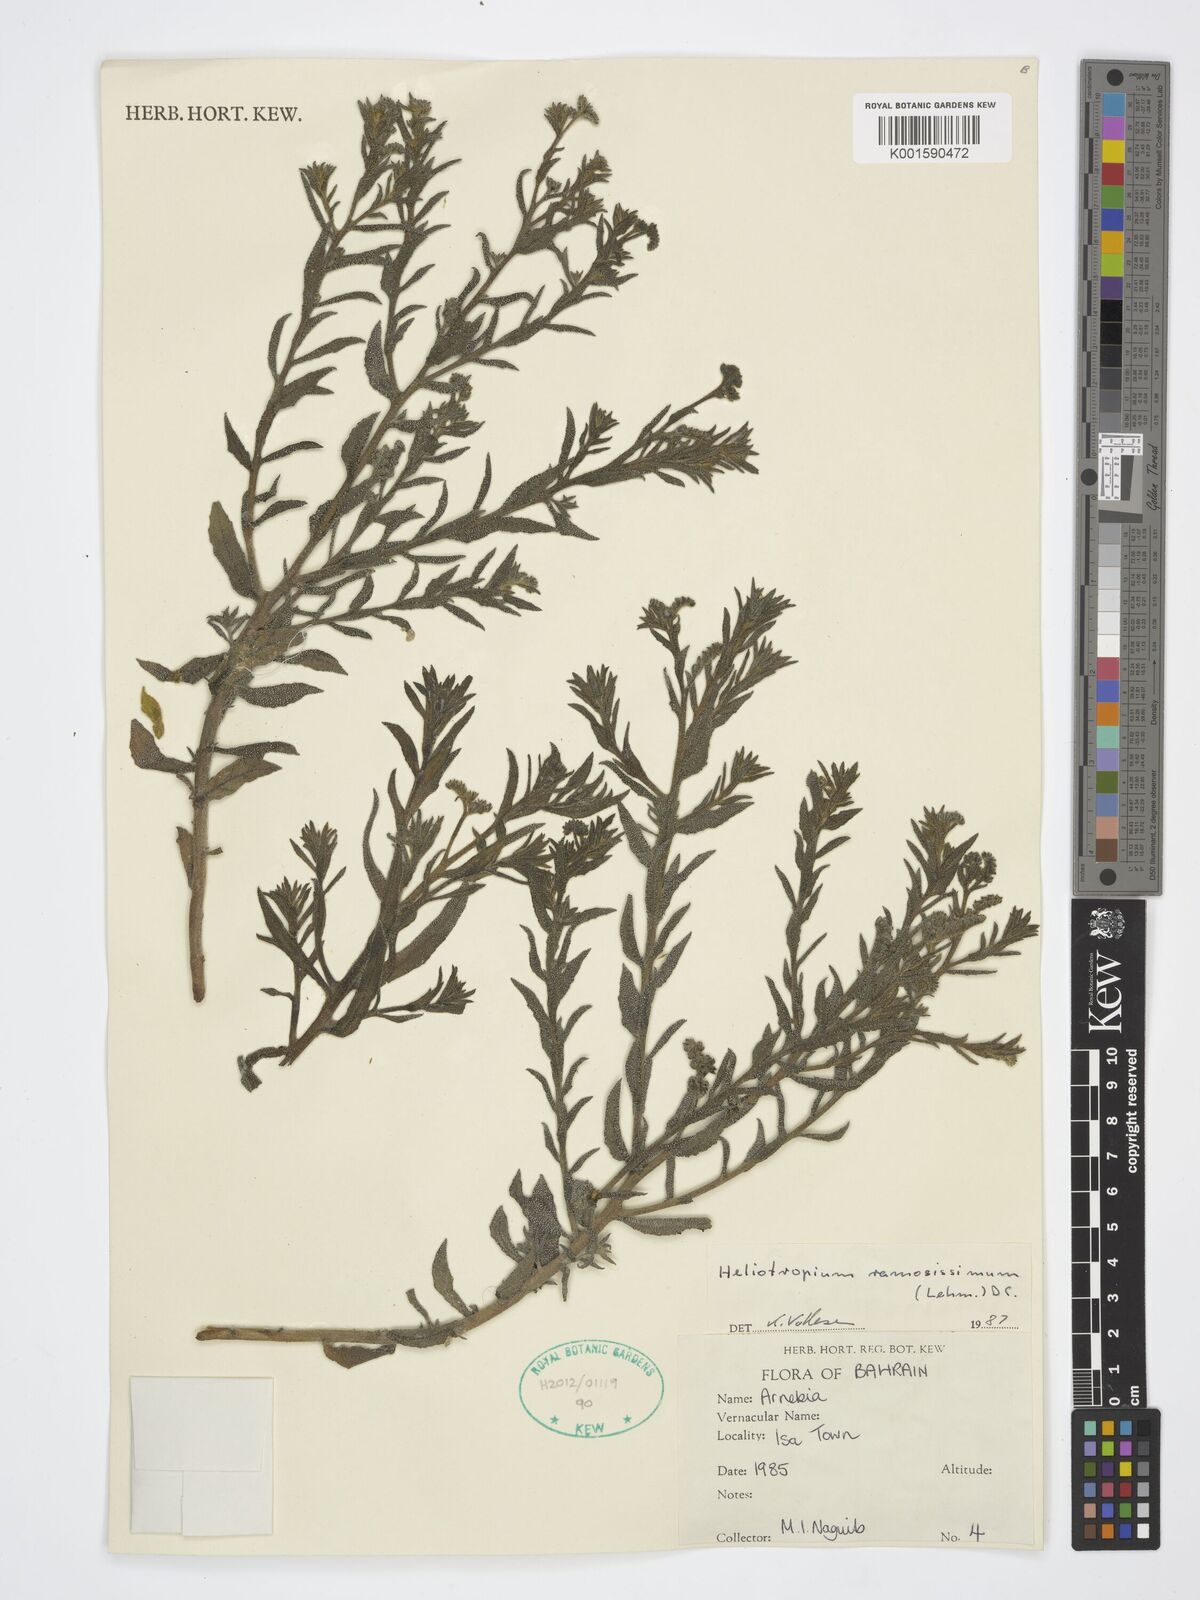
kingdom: Plantae
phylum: Tracheophyta
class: Magnoliopsida
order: Boraginales
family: Heliotropiaceae
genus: Heliotropium
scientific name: Heliotropium ramosissimum
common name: Wavy heliotrope
